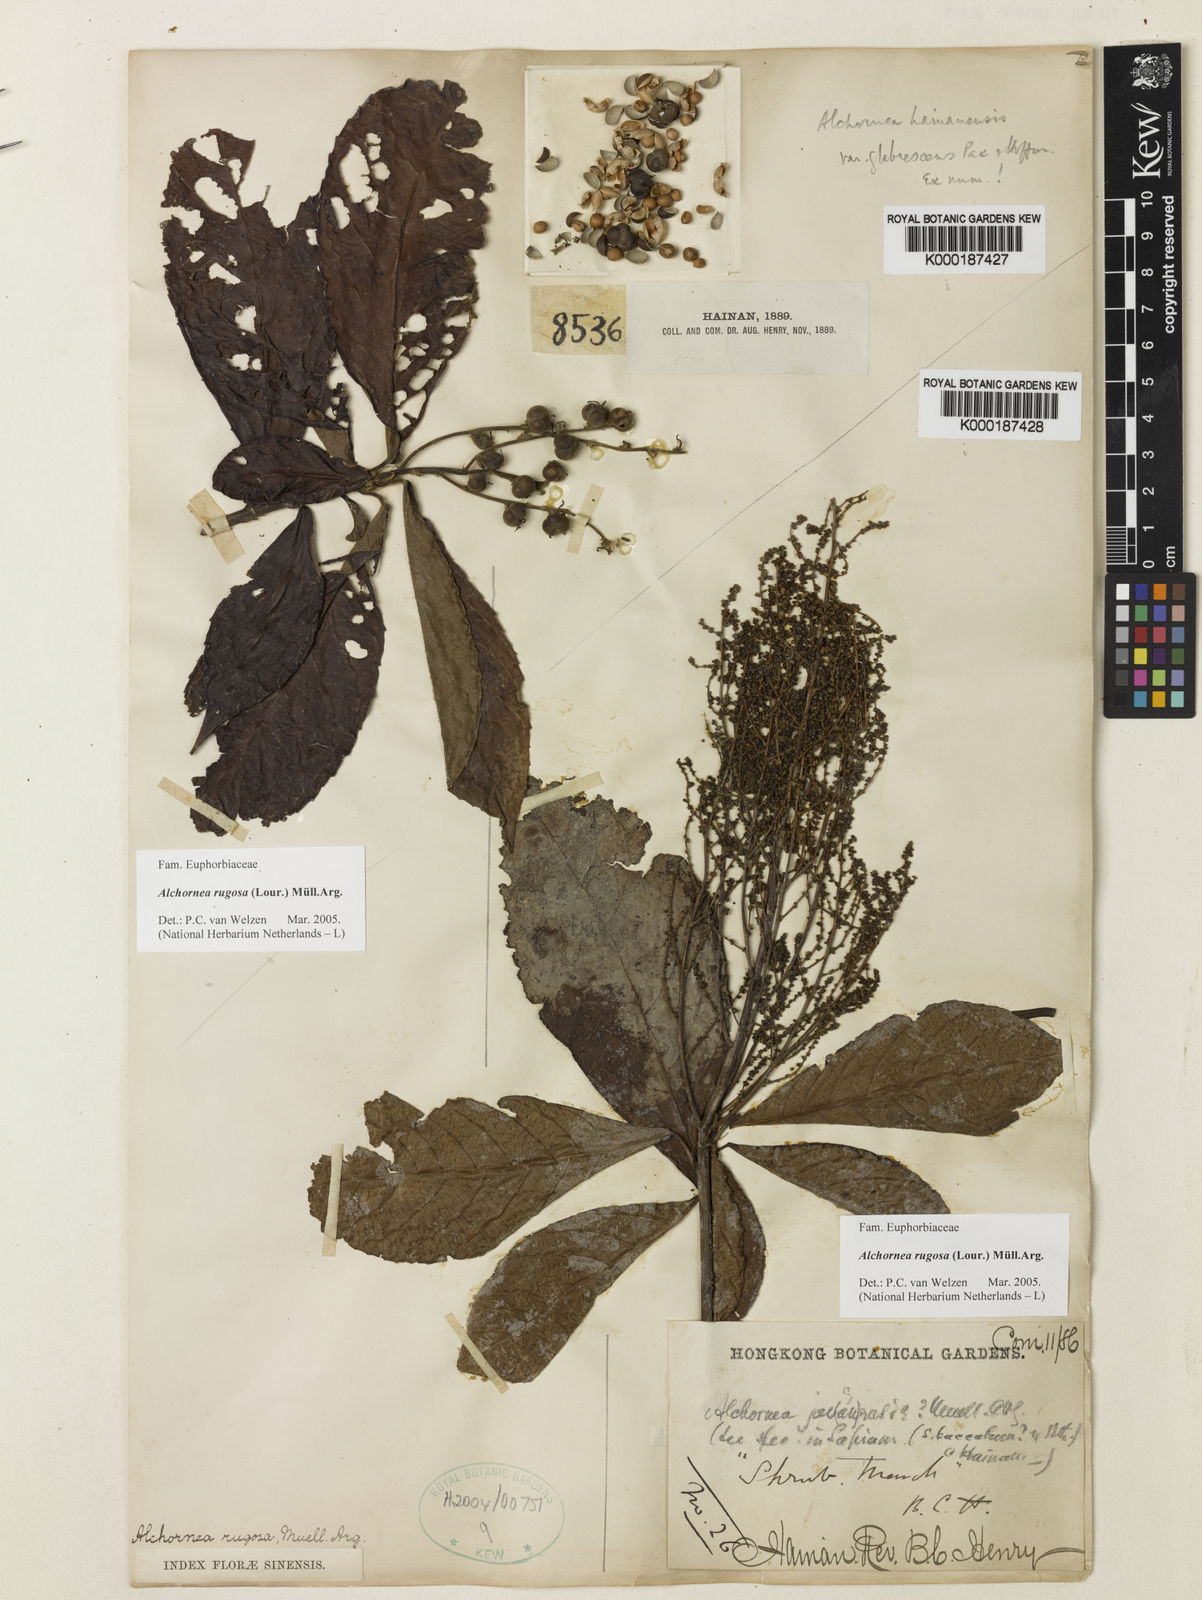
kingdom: Plantae
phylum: Tracheophyta
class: Magnoliopsida
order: Malpighiales
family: Euphorbiaceae
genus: Alchornea
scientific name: Alchornea
